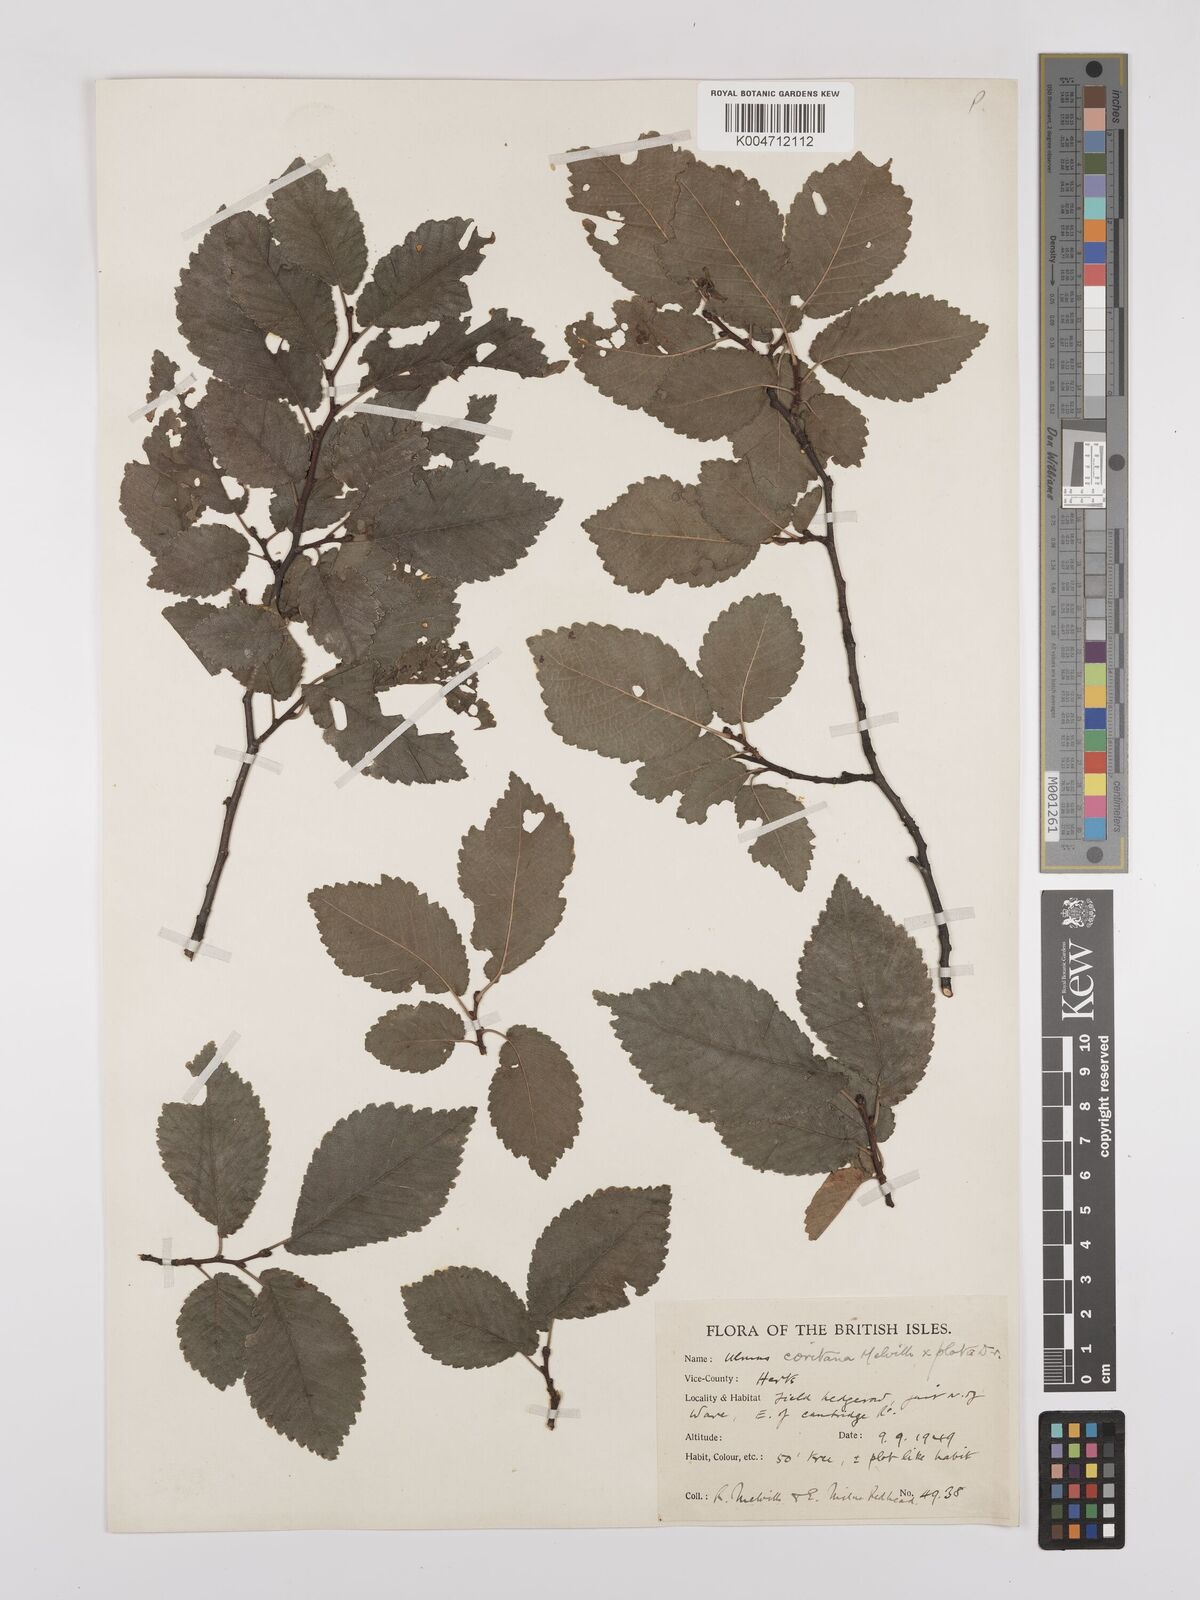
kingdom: Plantae
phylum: Tracheophyta
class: Magnoliopsida
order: Rosales
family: Ulmaceae
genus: Ulmus
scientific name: Ulmus minor
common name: Small-leaved elm
